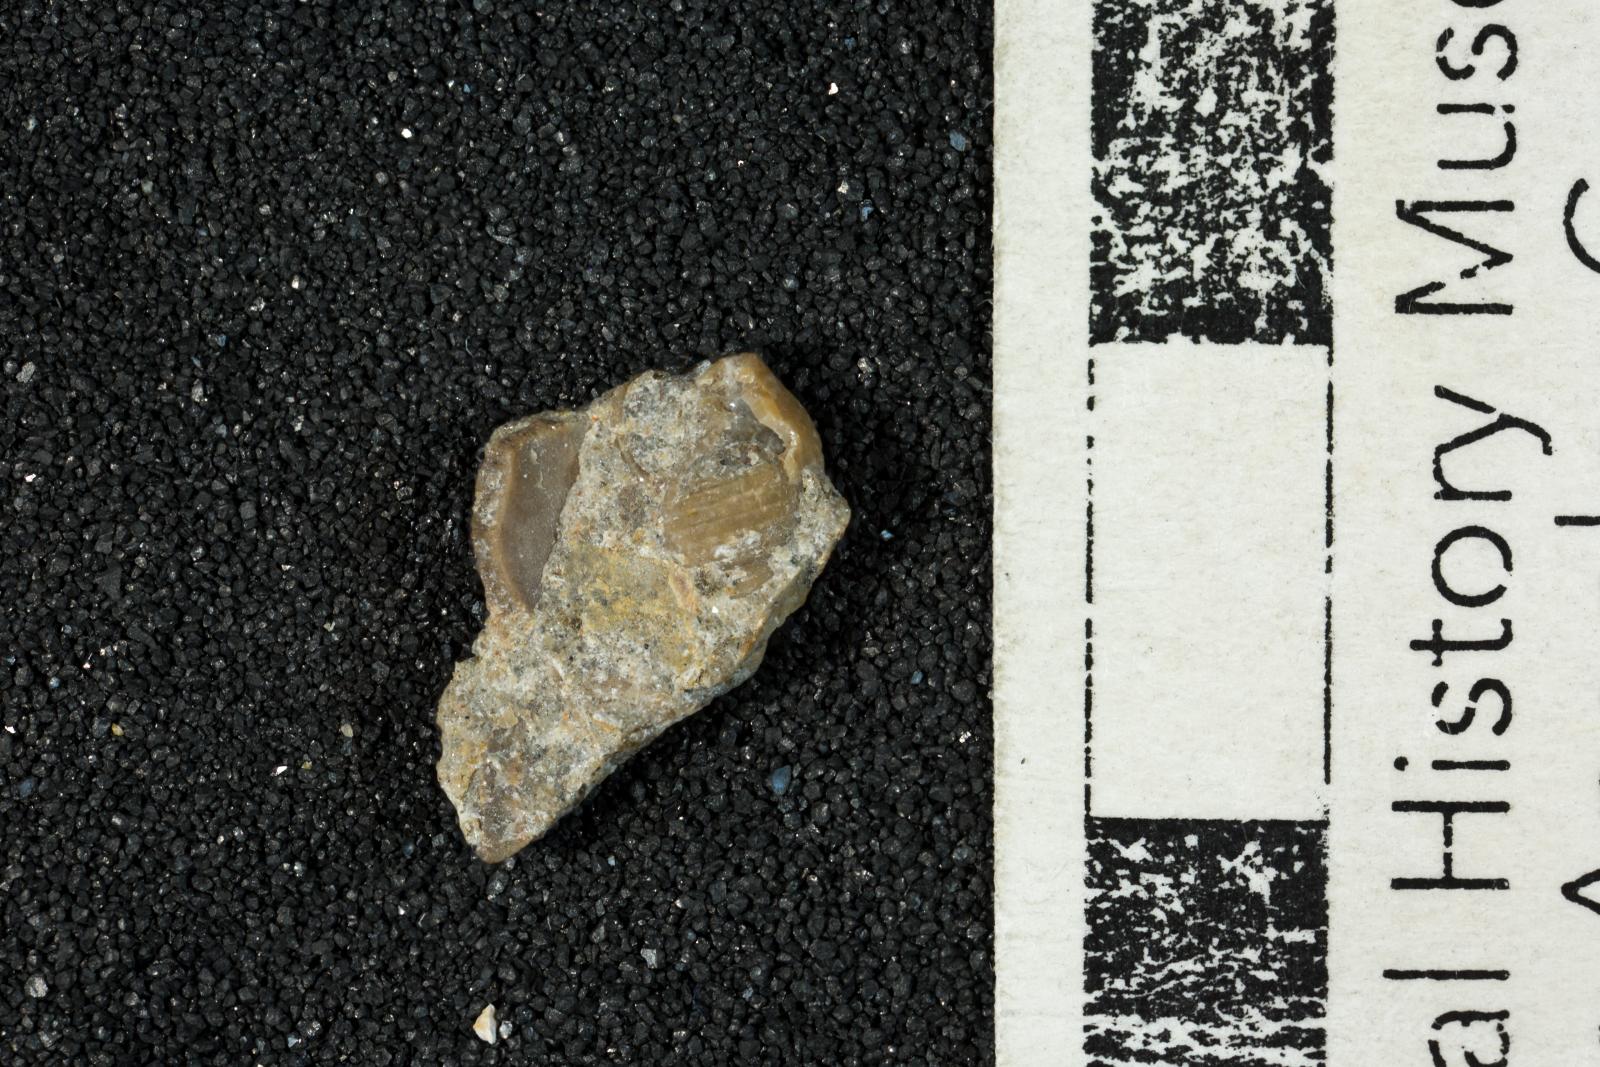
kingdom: Animalia
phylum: Mollusca
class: Gastropoda
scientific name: Gastropoda
